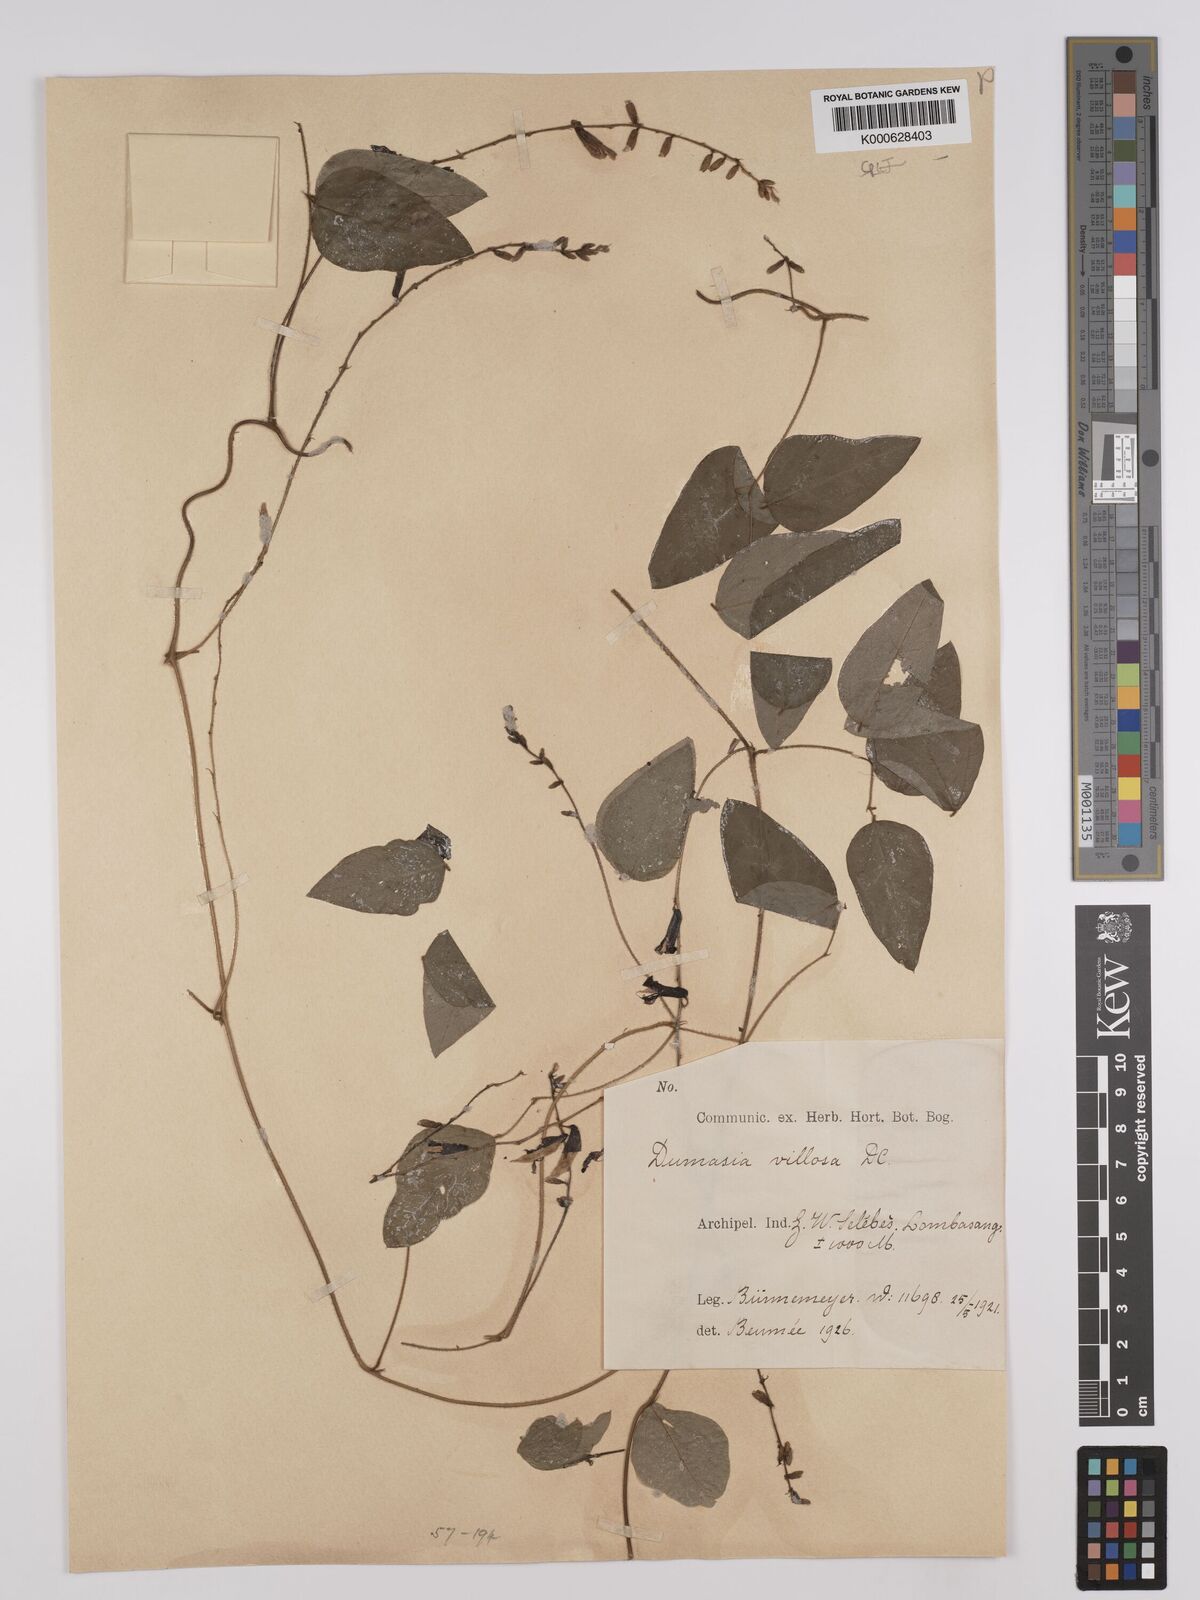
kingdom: Plantae
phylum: Tracheophyta
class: Magnoliopsida
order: Fabales
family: Fabaceae
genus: Dumasia
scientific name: Dumasia villosa
